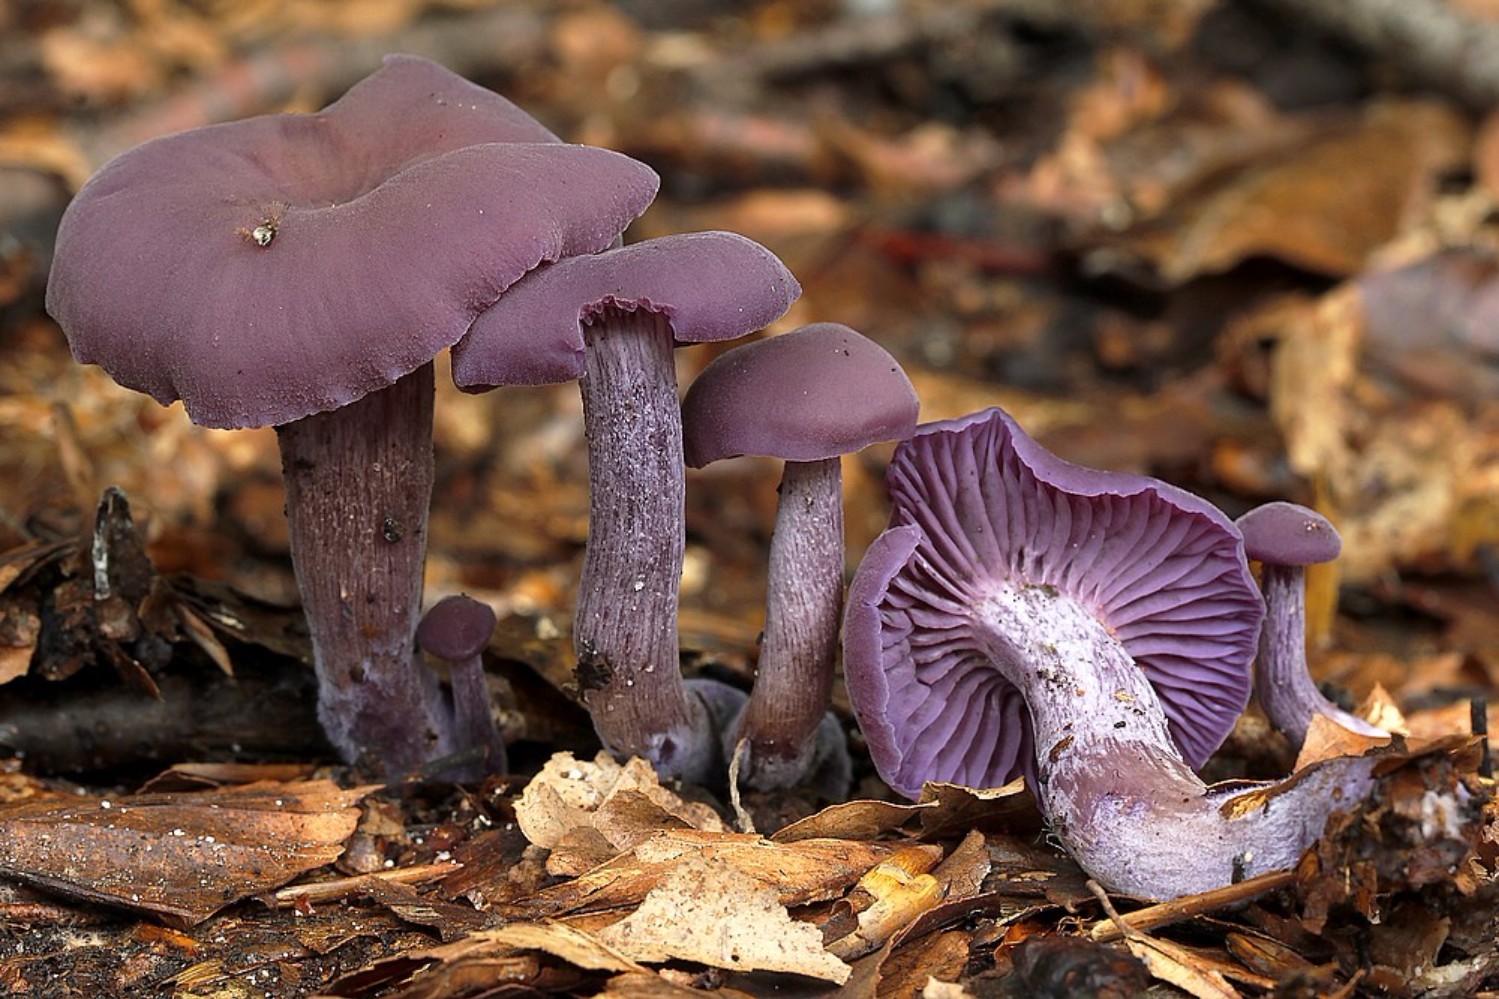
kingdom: Fungi
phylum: Basidiomycota
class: Agaricomycetes
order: Agaricales
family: Hydnangiaceae
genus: Laccaria
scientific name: Laccaria amethystina
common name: violet ametysthat
